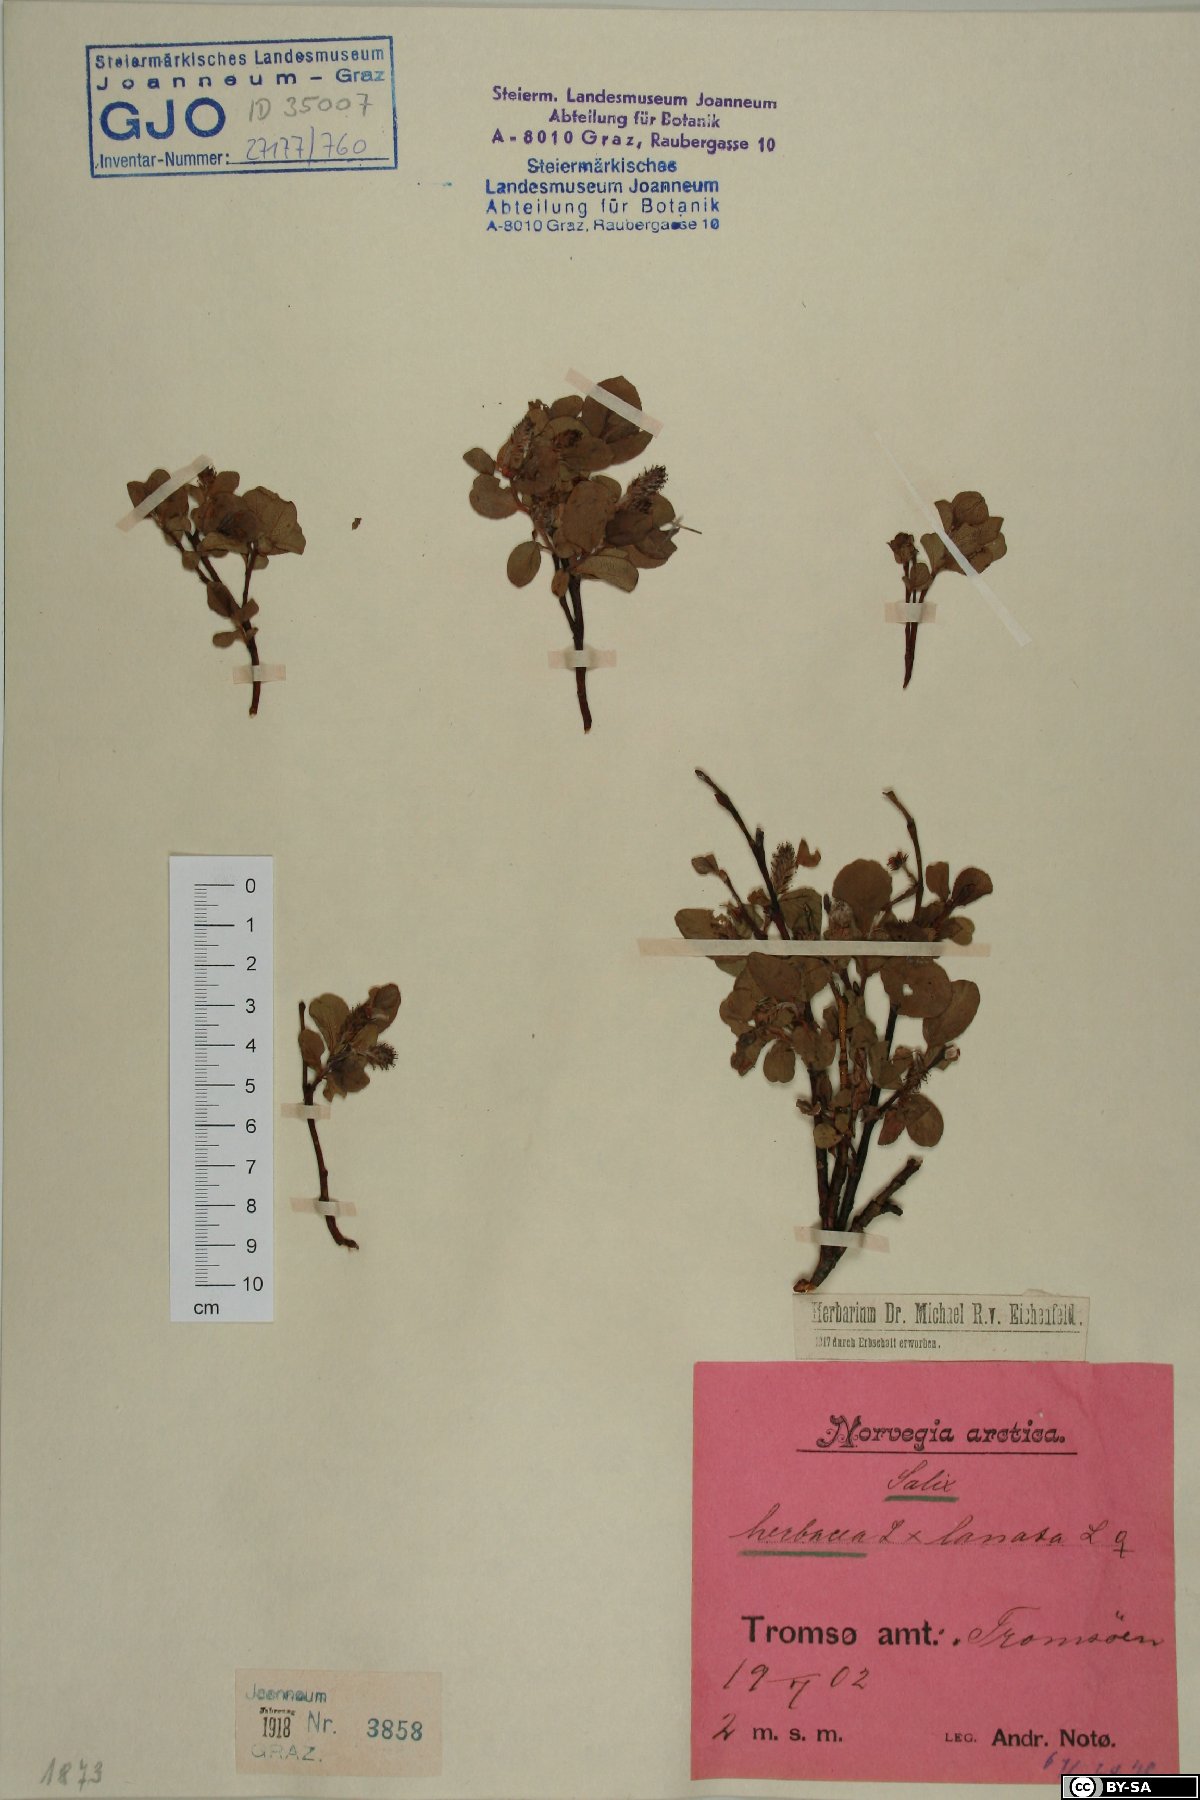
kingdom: Plantae
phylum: Tracheophyta
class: Magnoliopsida
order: Malpighiales
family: Salicaceae
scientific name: Salicaceae
